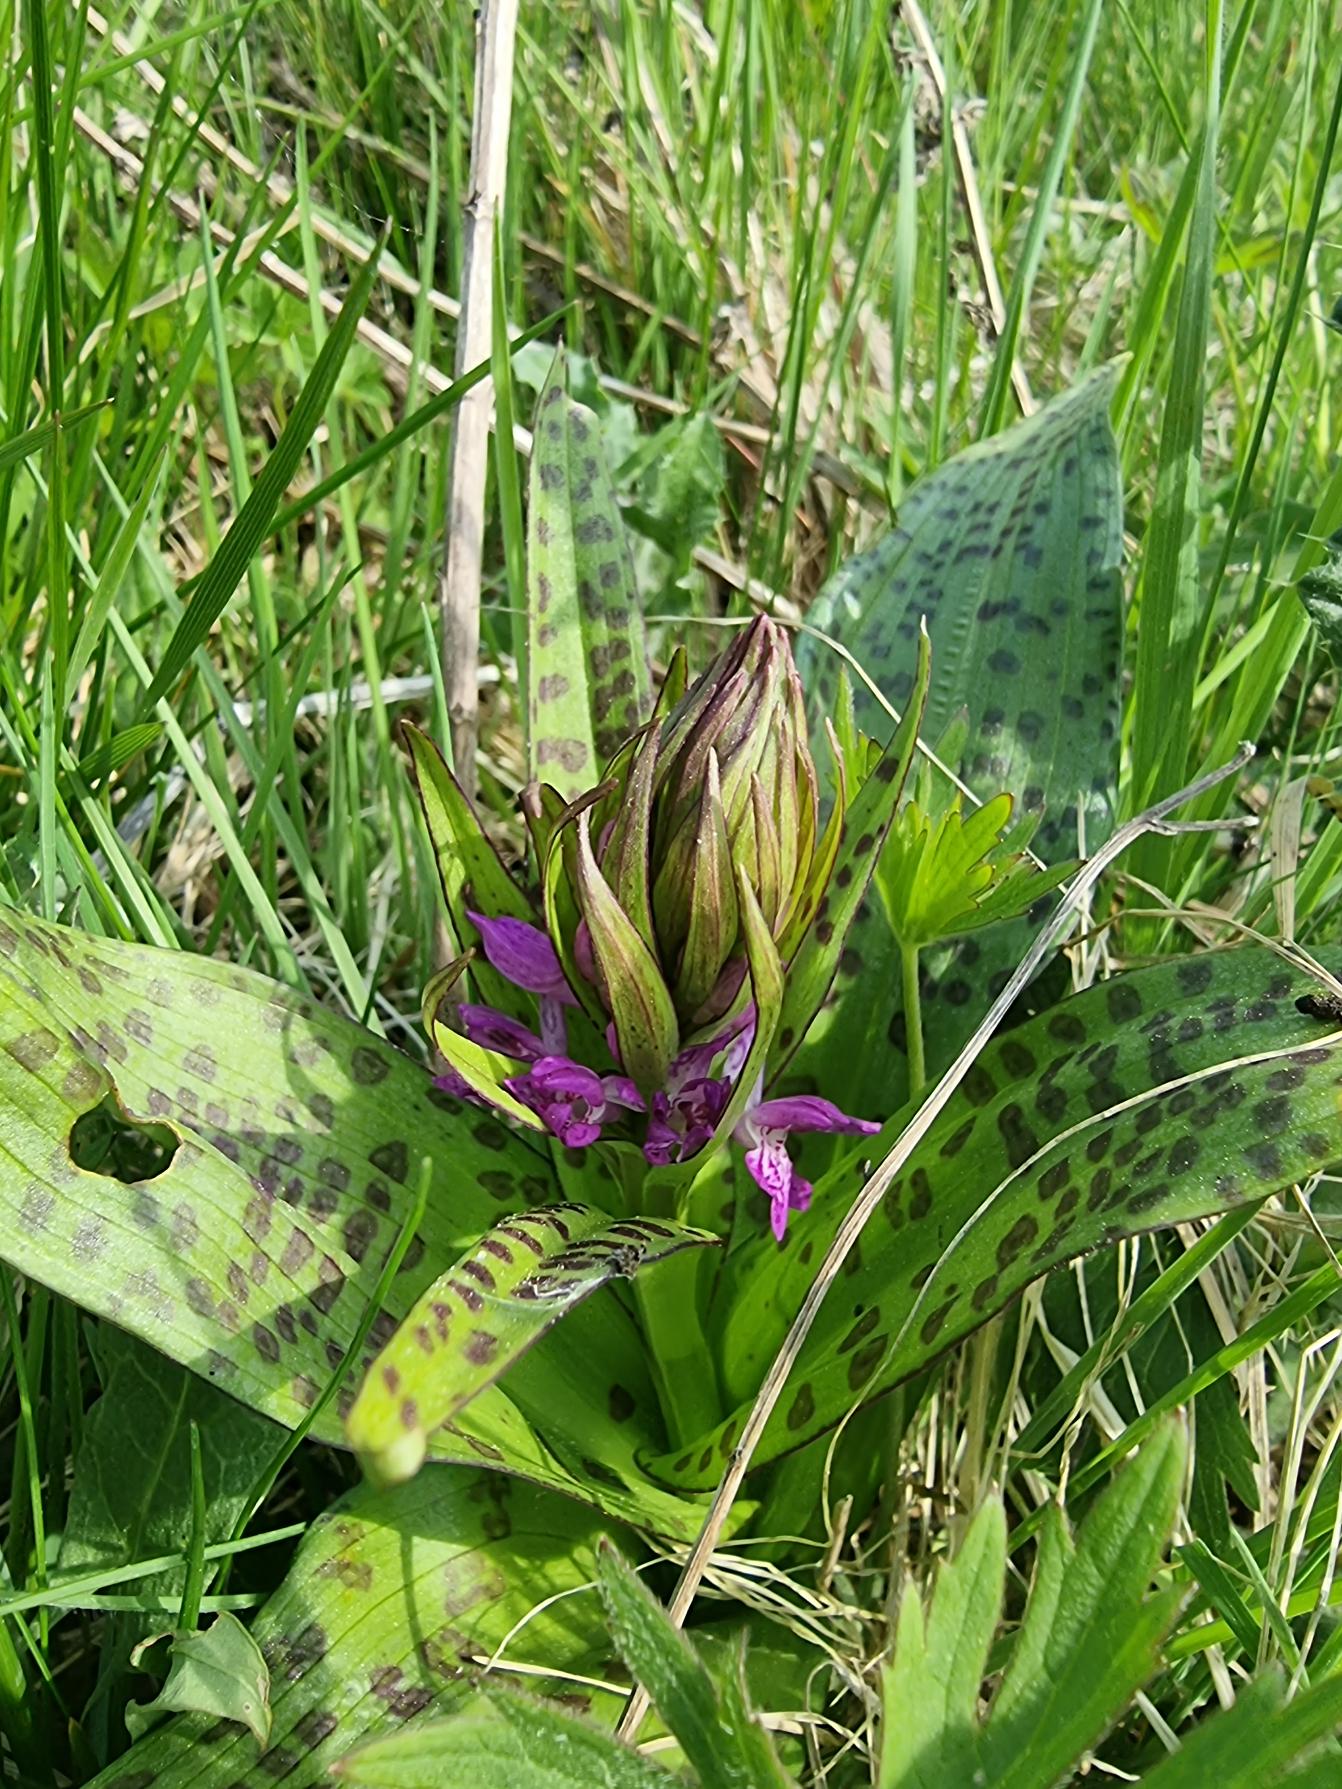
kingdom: Plantae
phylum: Tracheophyta
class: Liliopsida
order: Asparagales
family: Orchidaceae
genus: Dactylorhiza
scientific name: Dactylorhiza majalis
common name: Maj-gøgeurt
